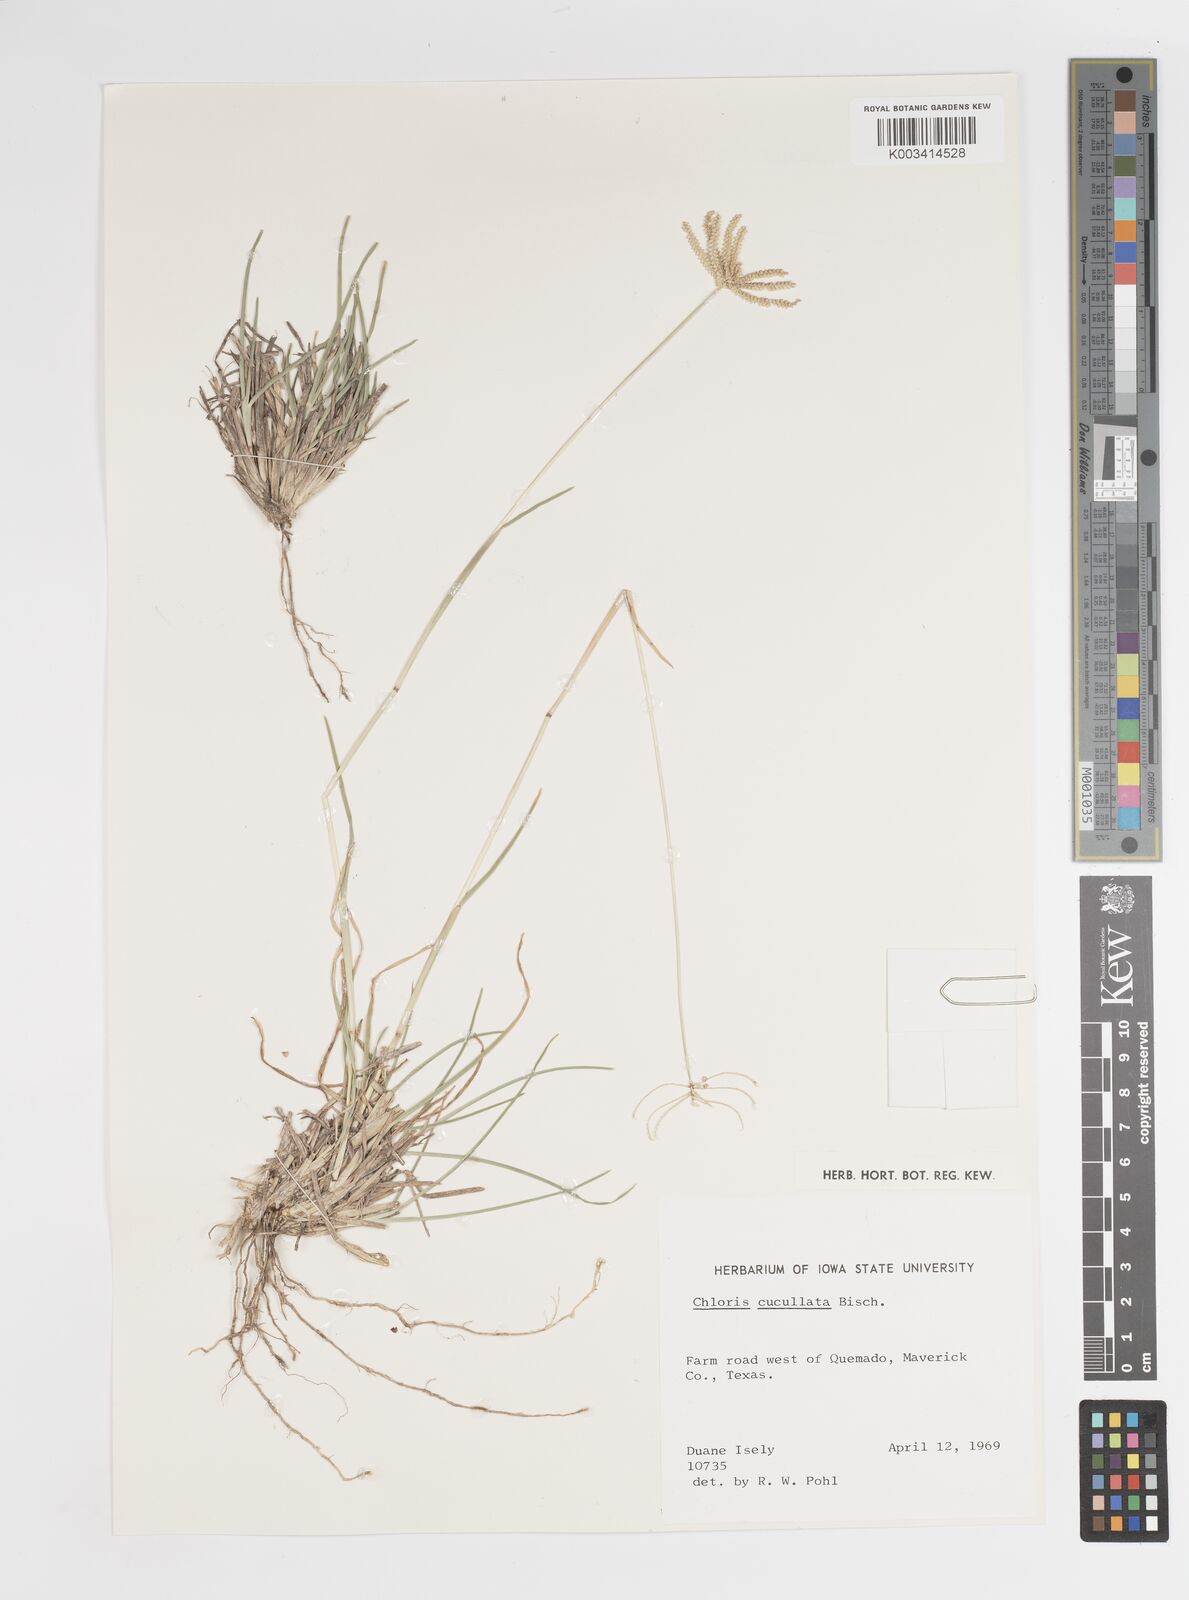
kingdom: Plantae
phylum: Tracheophyta
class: Liliopsida
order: Poales
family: Poaceae
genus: Chloris
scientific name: Chloris cucullata
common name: Hooded windmill grass
